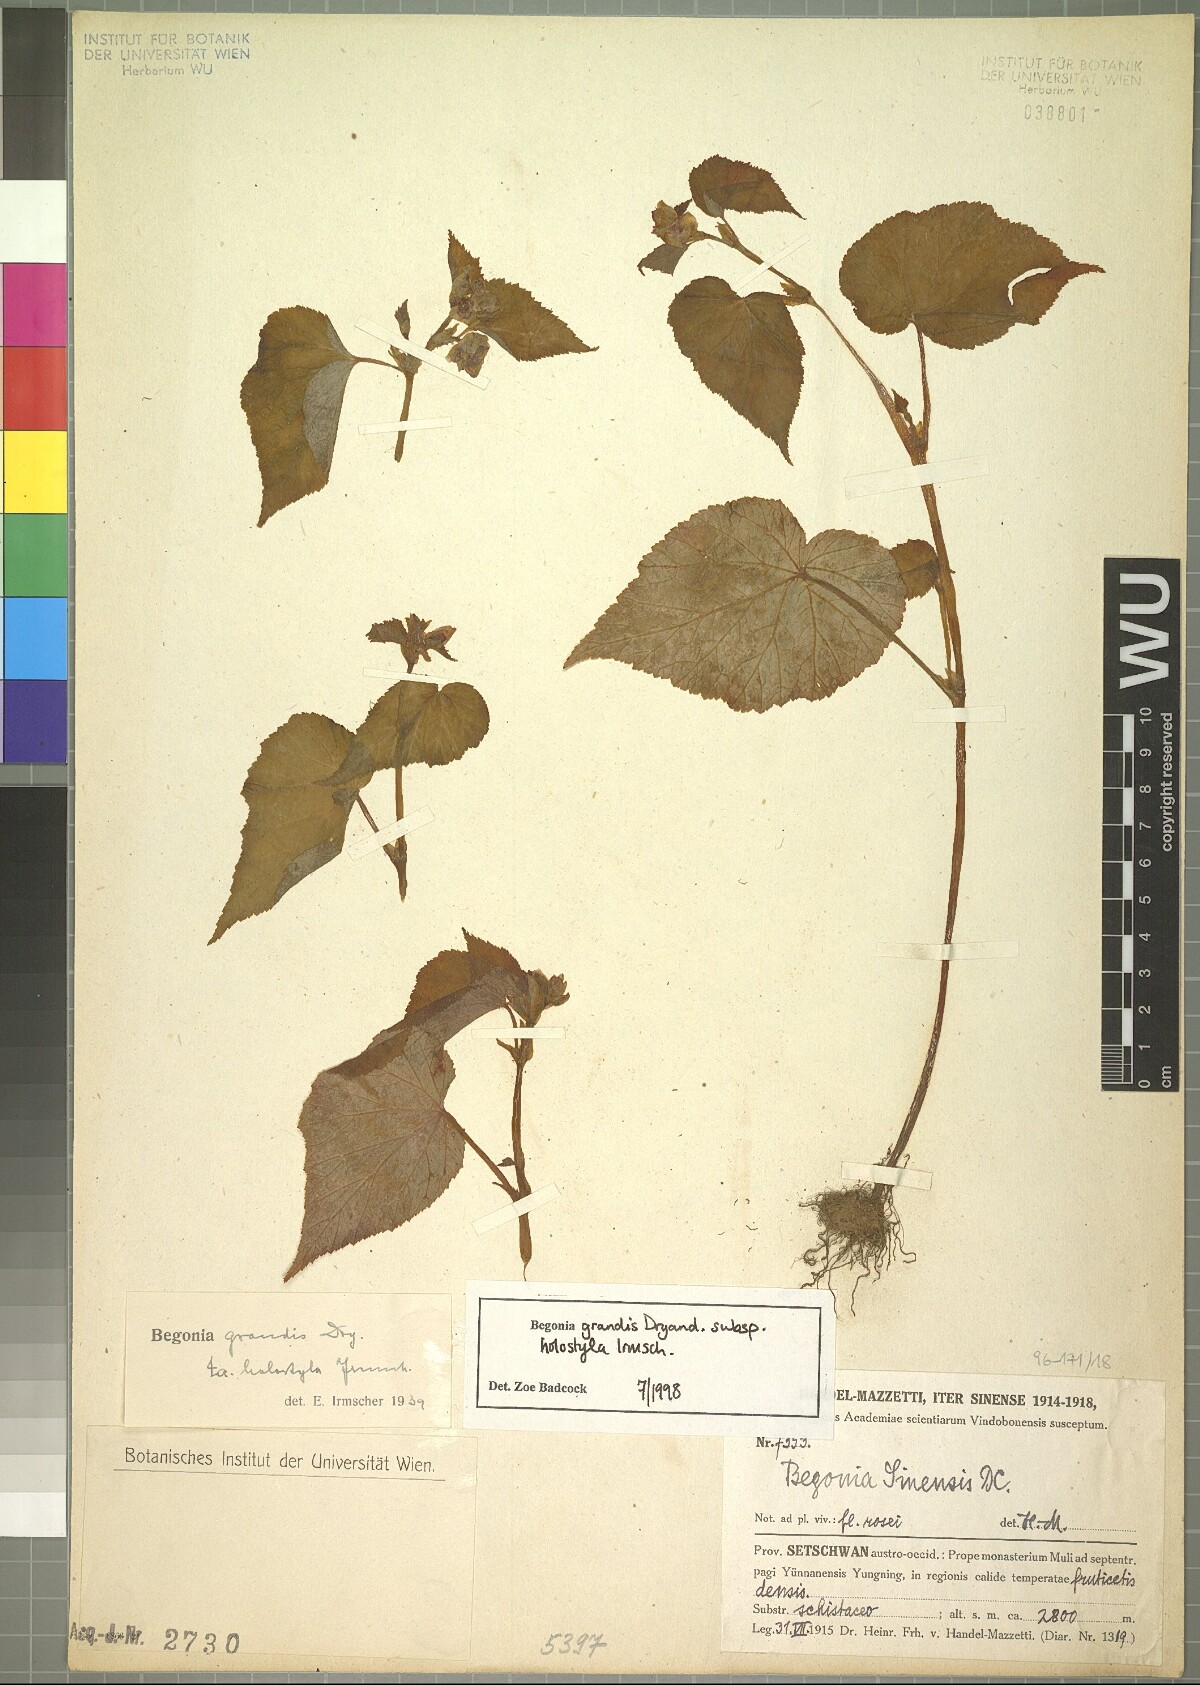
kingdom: Plantae
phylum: Tracheophyta
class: Magnoliopsida
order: Cucurbitales
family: Begoniaceae
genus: Begonia
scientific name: Begonia grandis
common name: Hardy begonia
